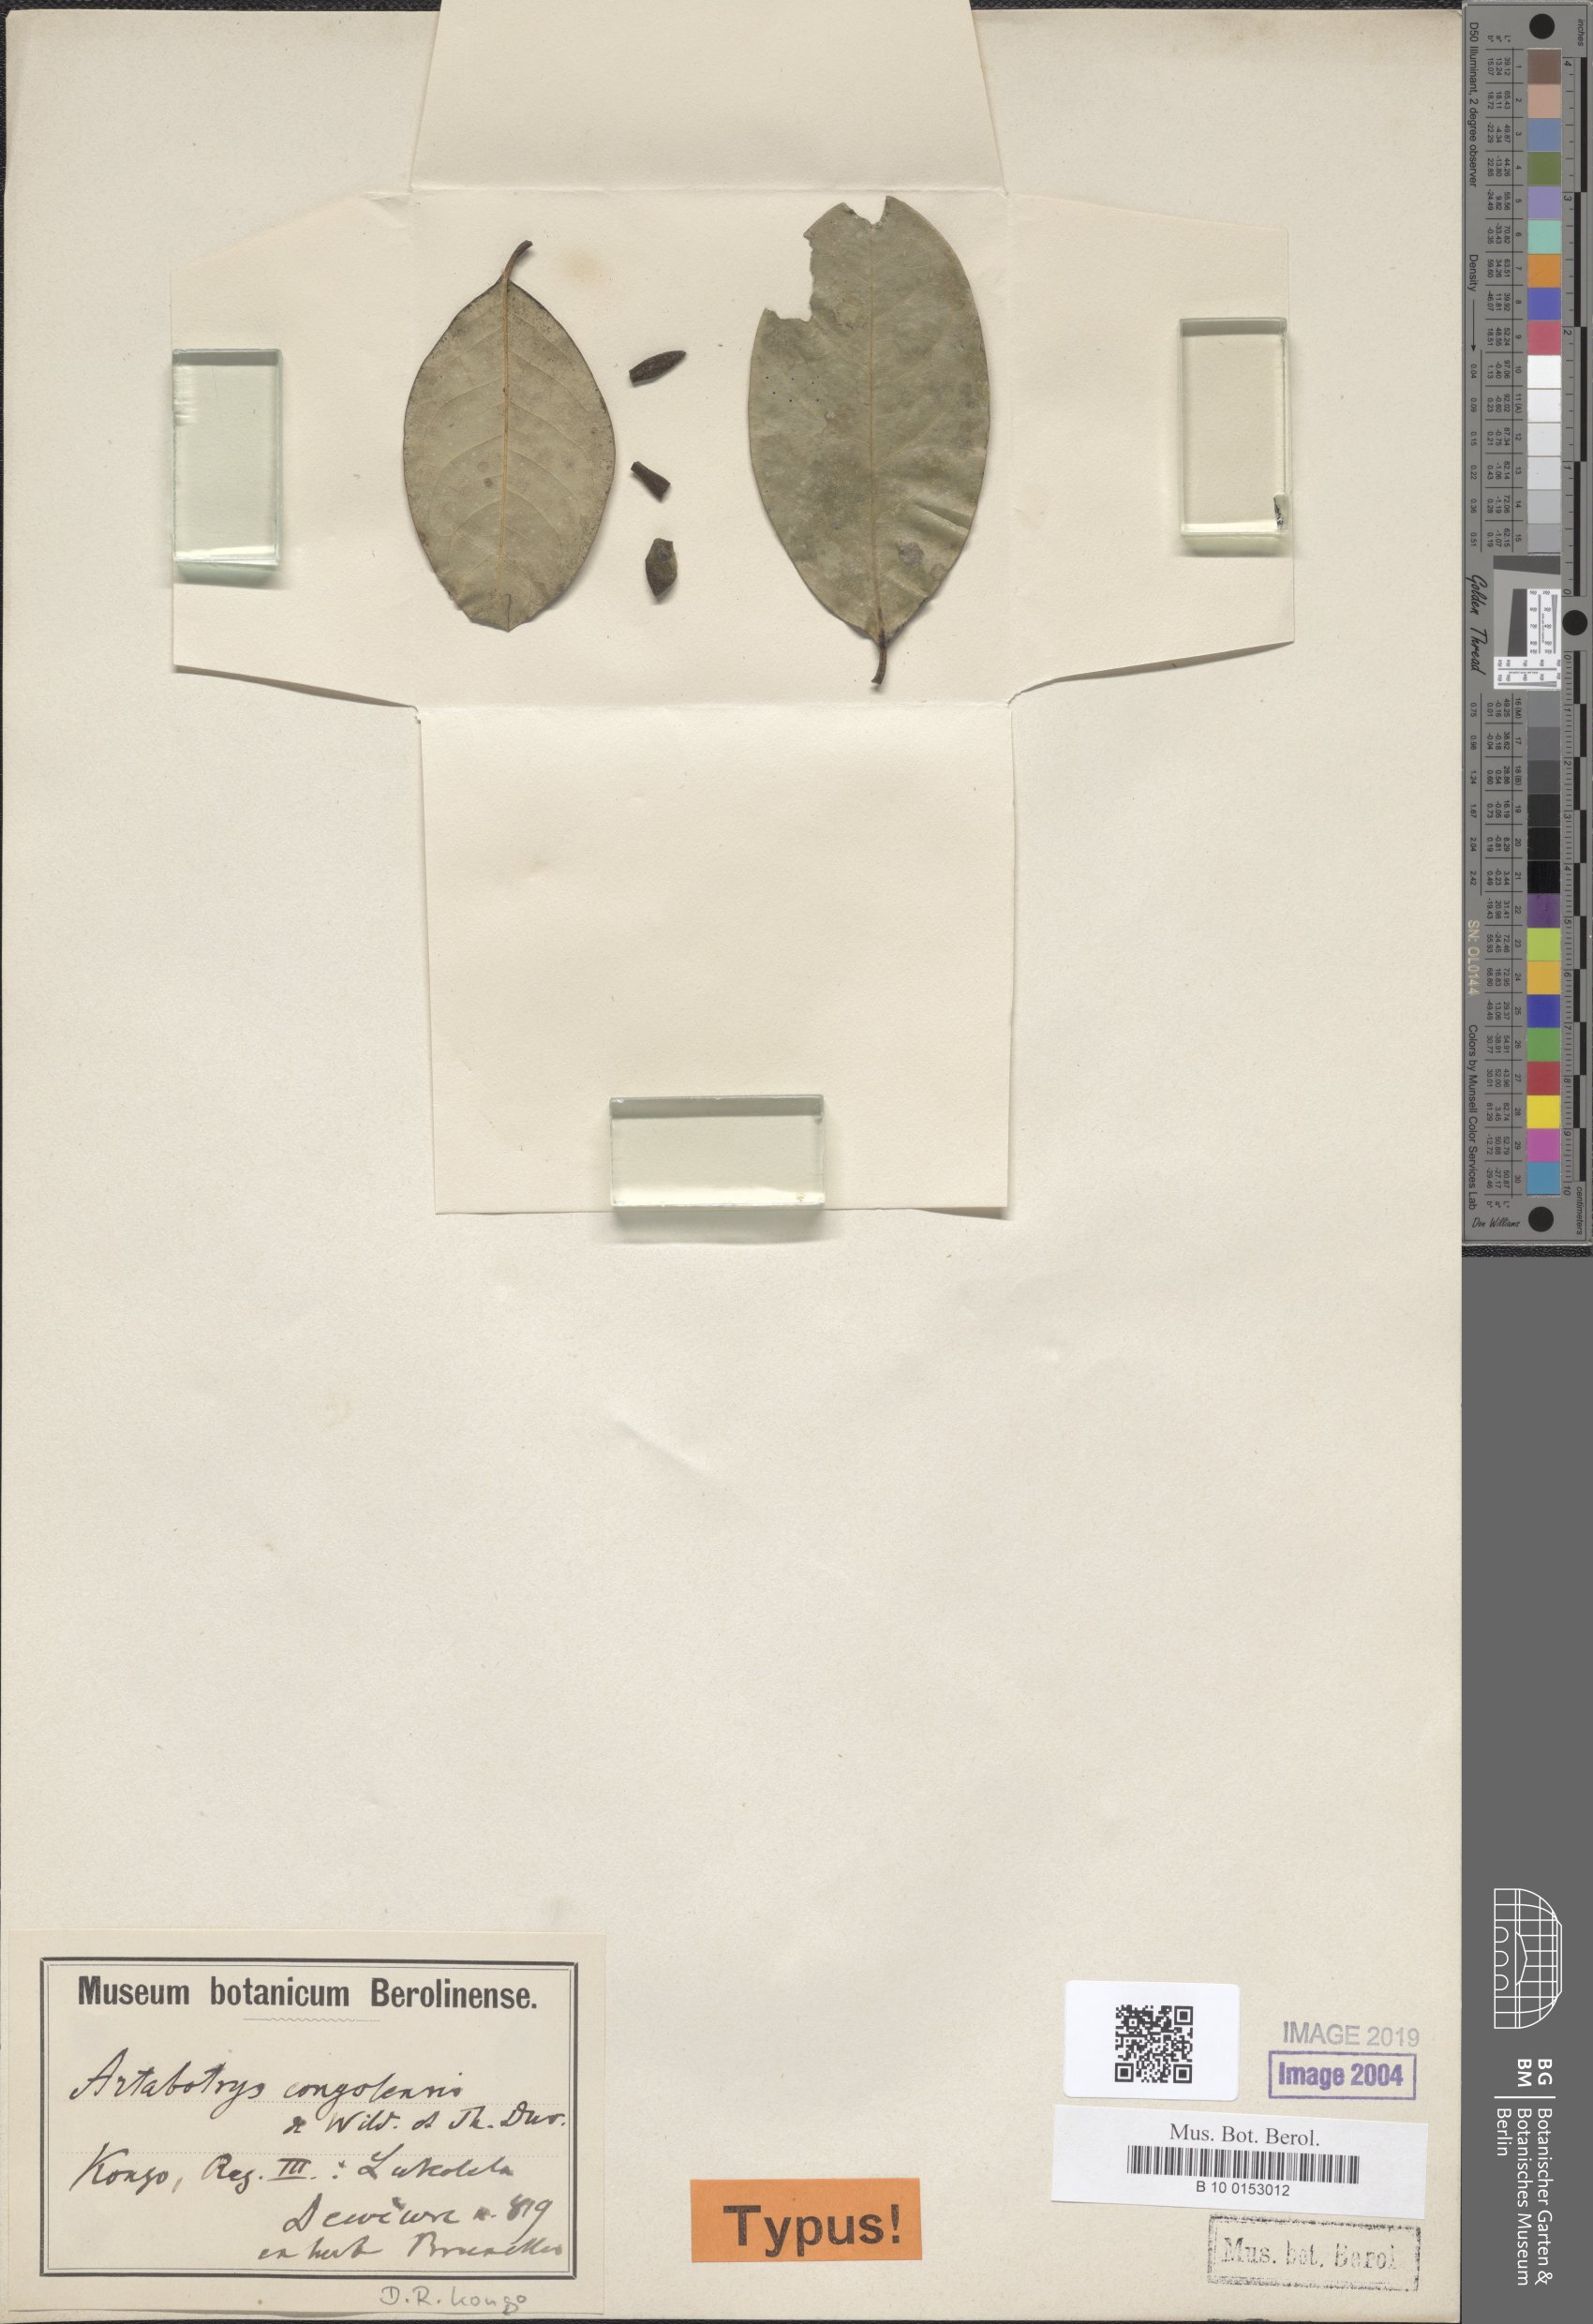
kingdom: Plantae
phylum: Tracheophyta
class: Magnoliopsida
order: Magnoliales
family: Annonaceae
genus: Artabotrys
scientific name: Artabotrys congolensis
